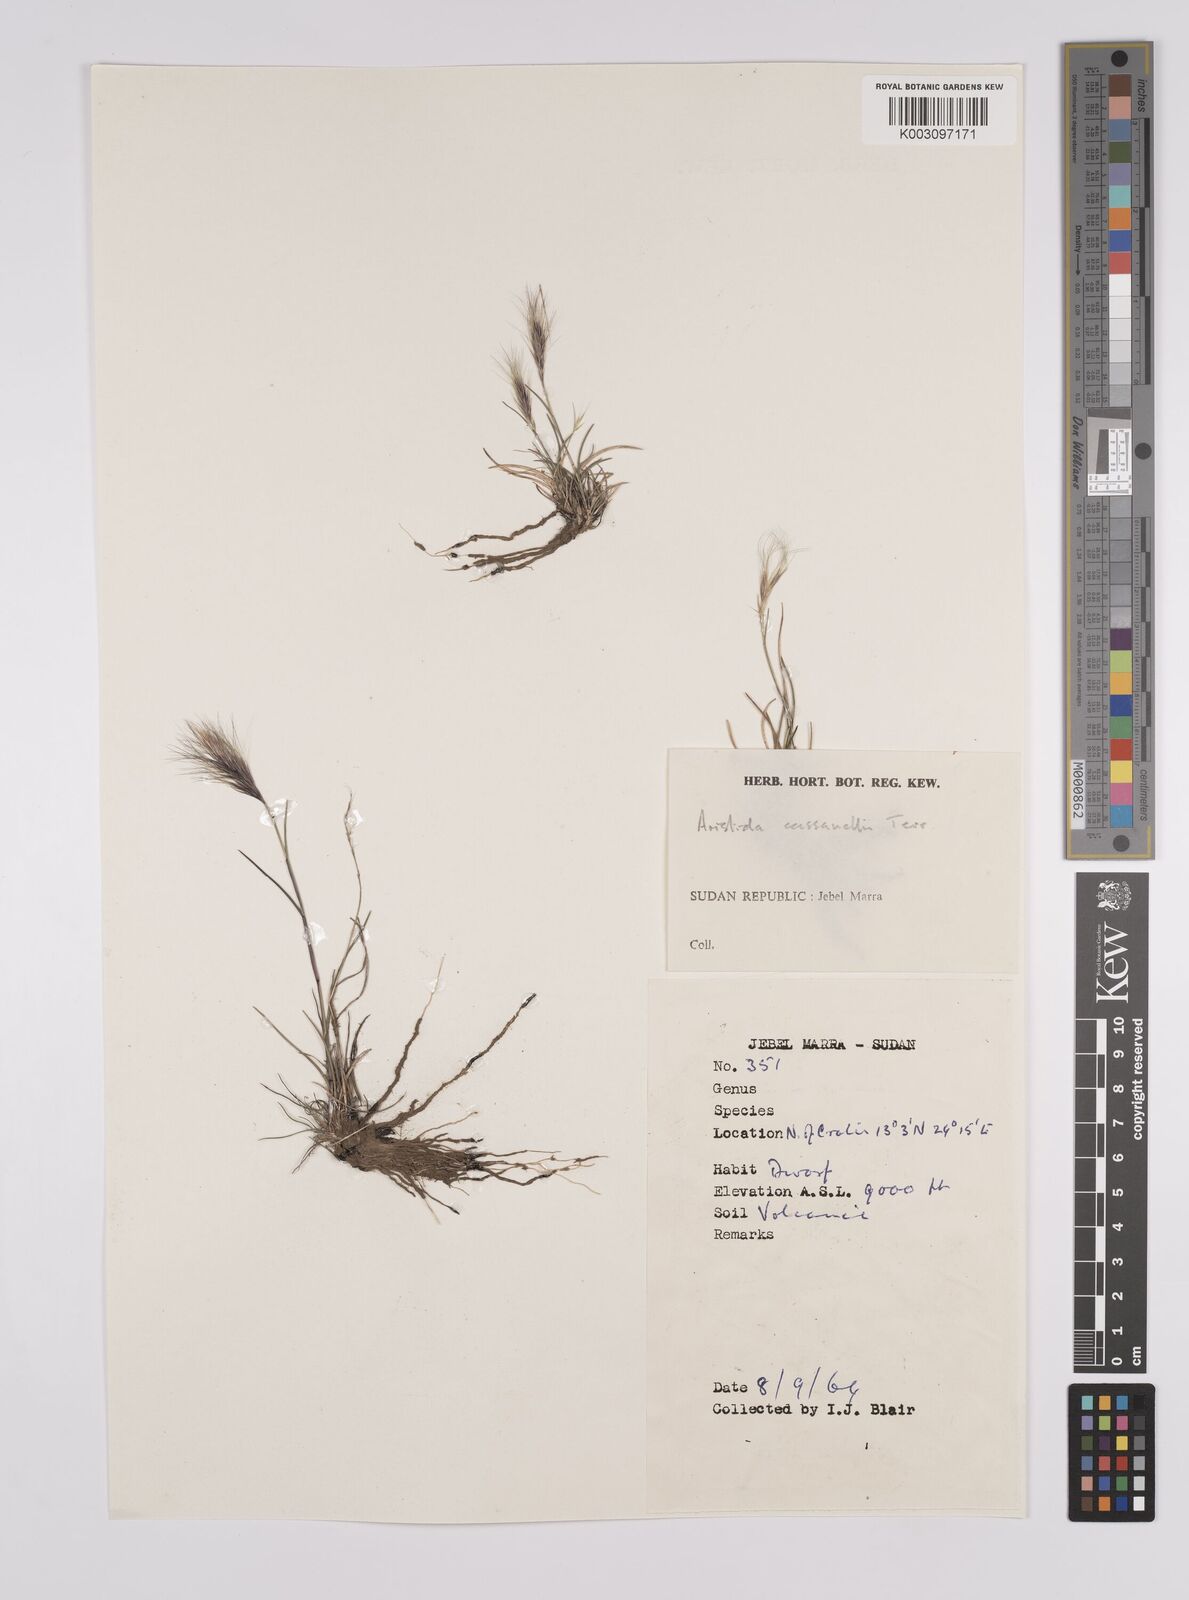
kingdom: Plantae
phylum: Tracheophyta
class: Liliopsida
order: Poales
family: Poaceae
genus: Aristida
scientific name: Aristida congesta
